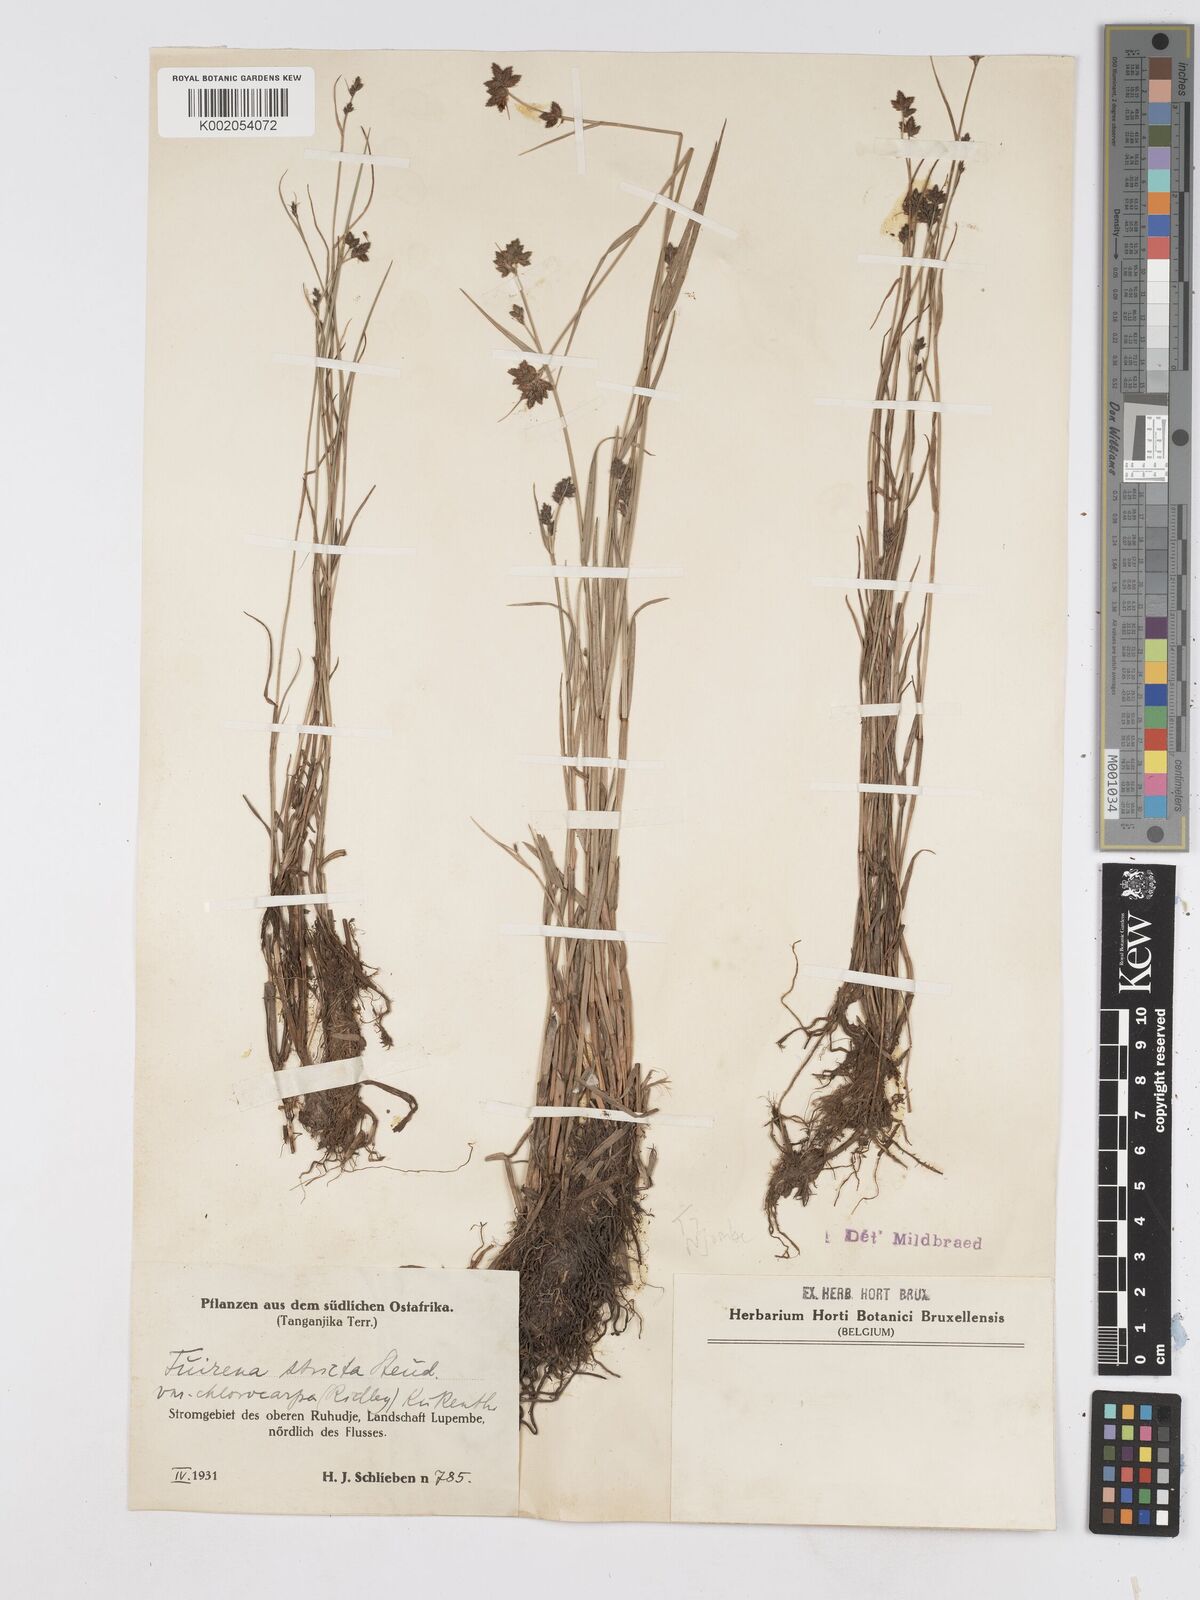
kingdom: Plantae
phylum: Tracheophyta
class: Liliopsida
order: Poales
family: Cyperaceae
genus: Fuirena
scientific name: Fuirena stricta
